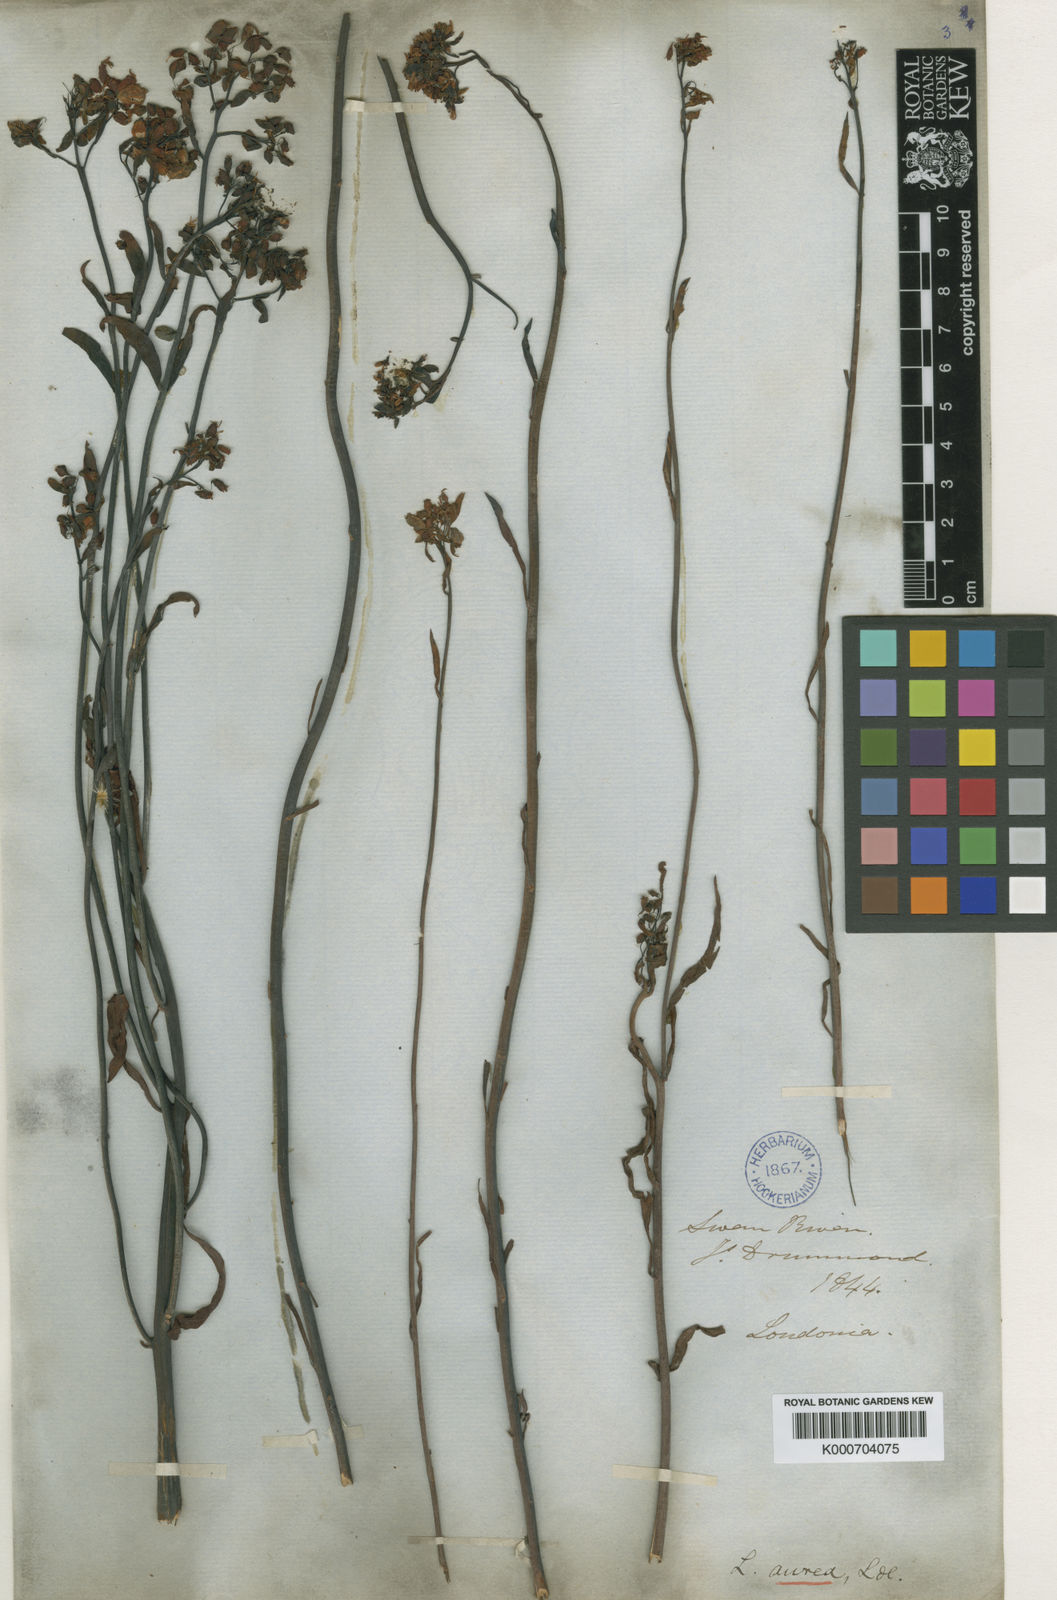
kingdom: Plantae
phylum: Tracheophyta
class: Magnoliopsida
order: Saxifragales
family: Haloragaceae
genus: Glischrocaryon
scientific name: Glischrocaryon aureum
